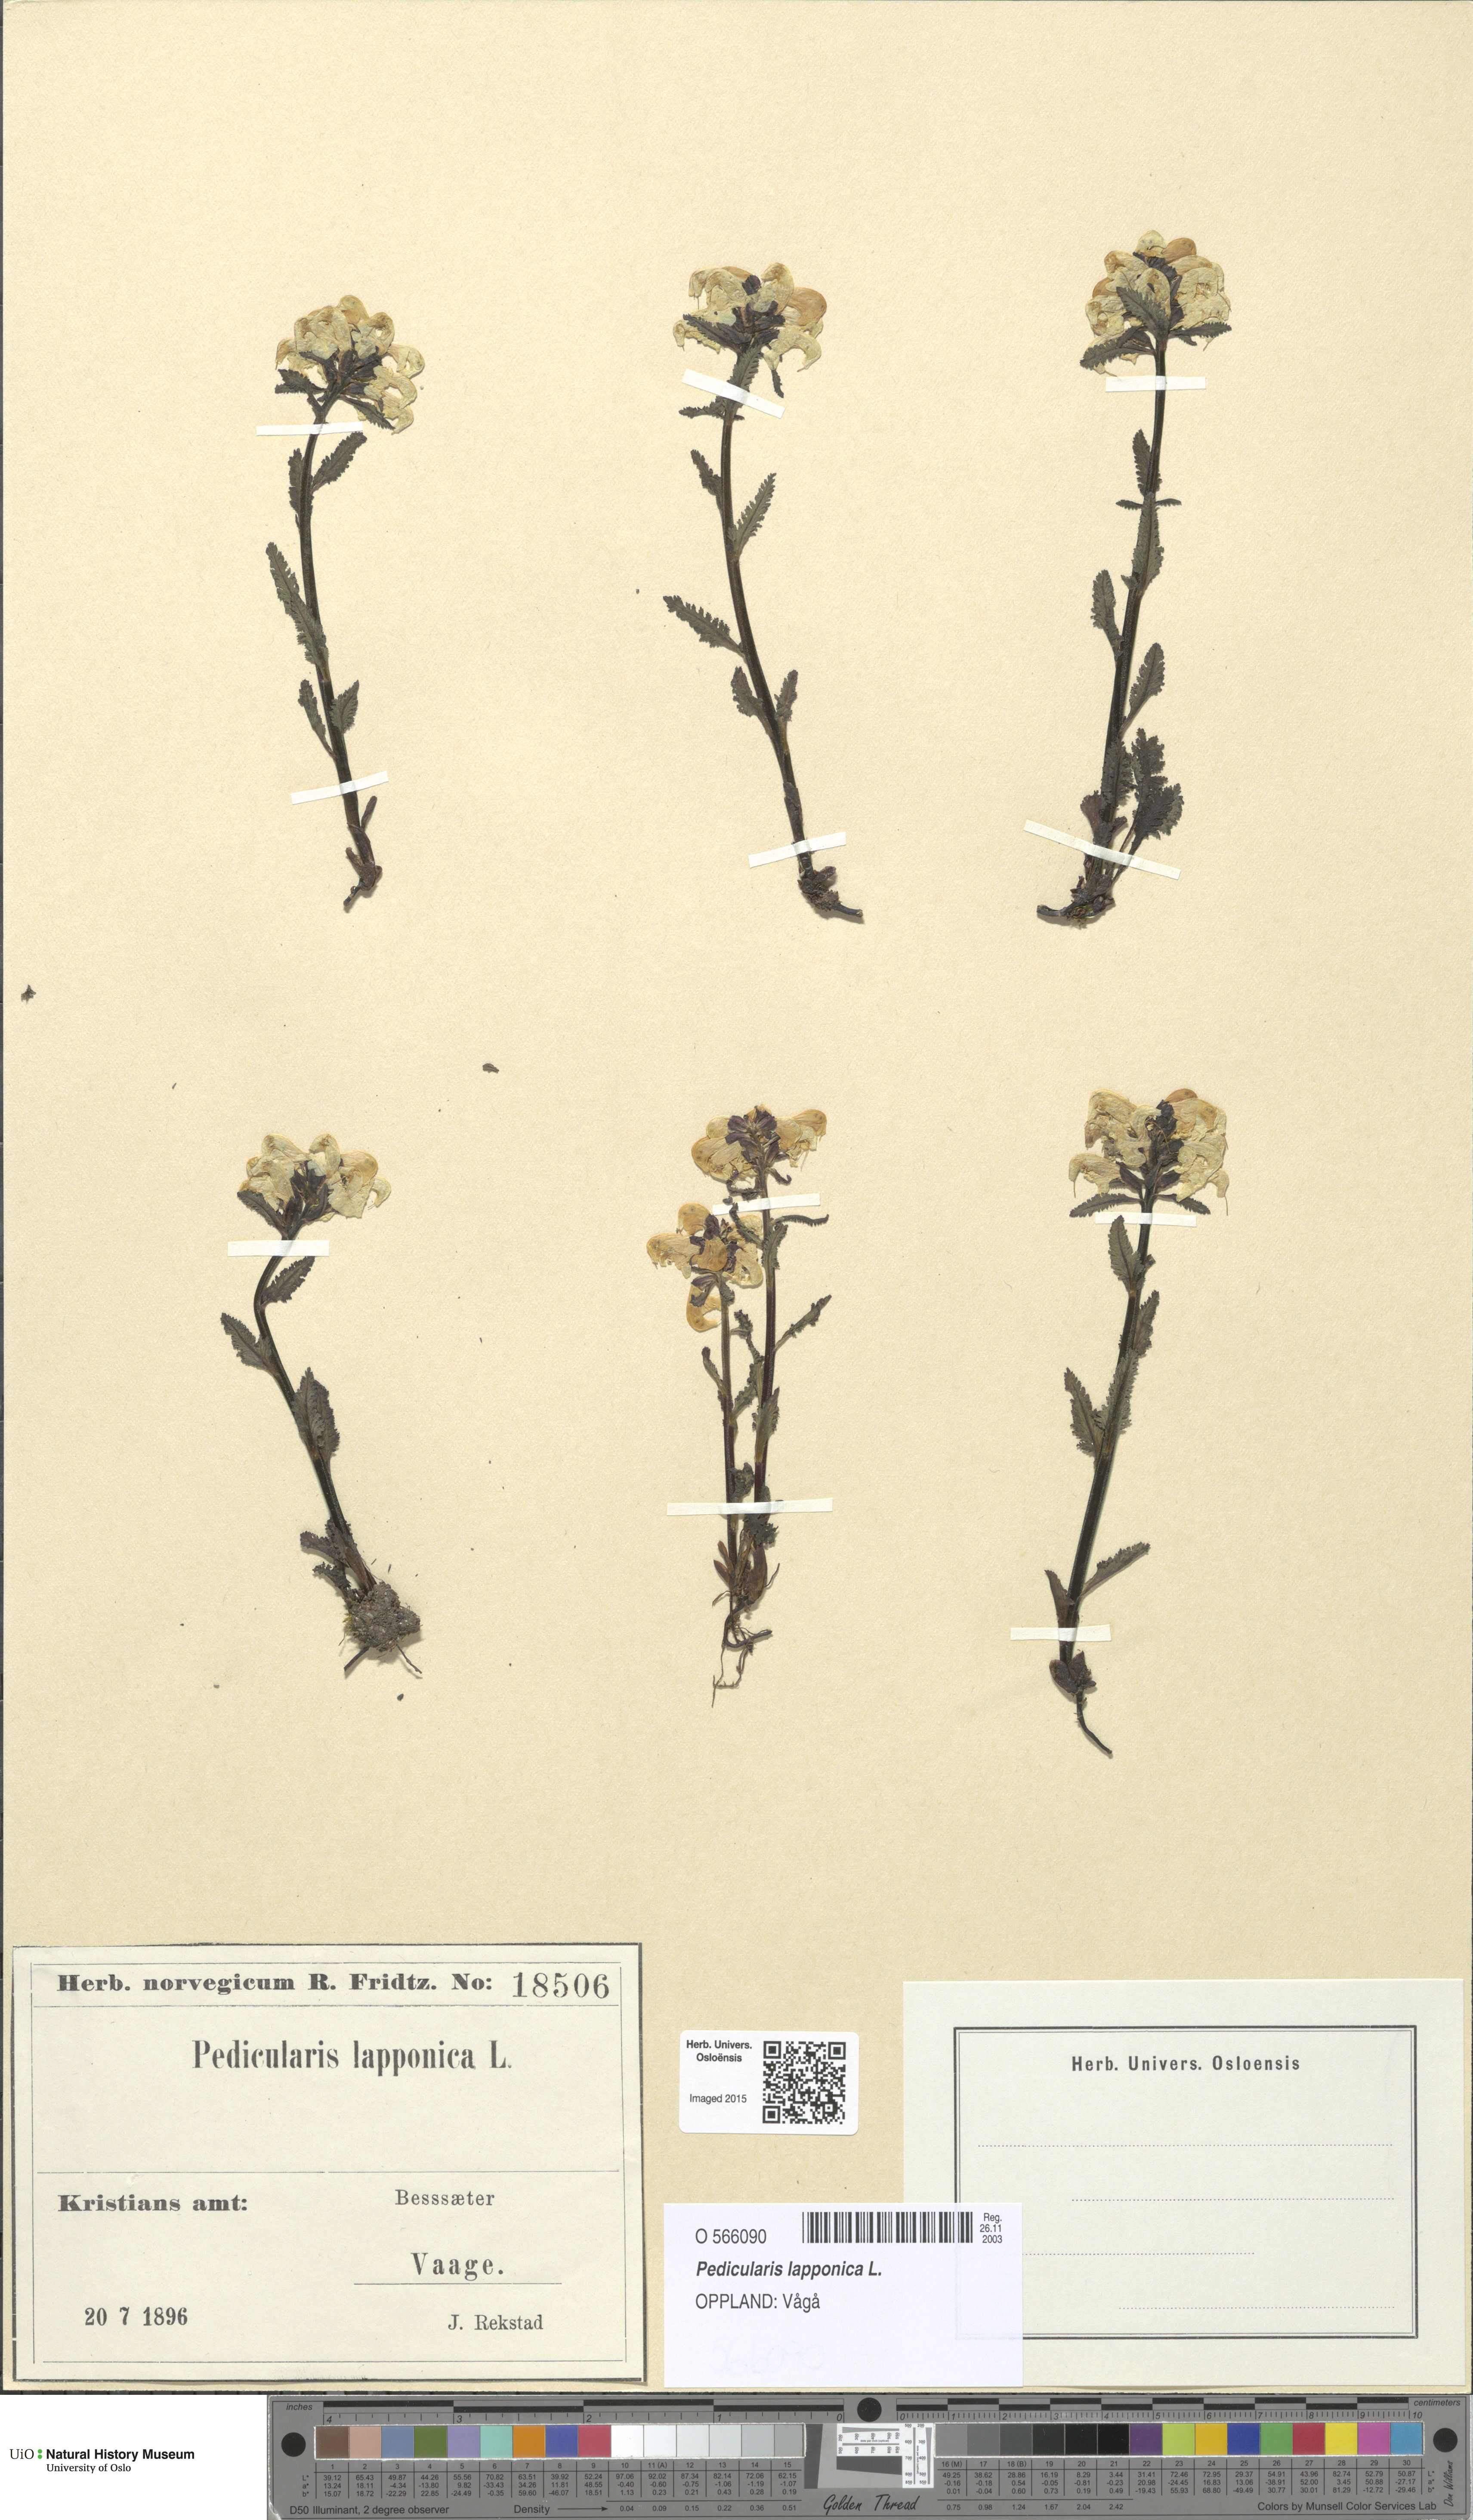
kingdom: Plantae
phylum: Tracheophyta
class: Magnoliopsida
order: Lamiales
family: Orobanchaceae
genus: Pedicularis
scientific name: Pedicularis lapponica
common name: Lapland lousewort
